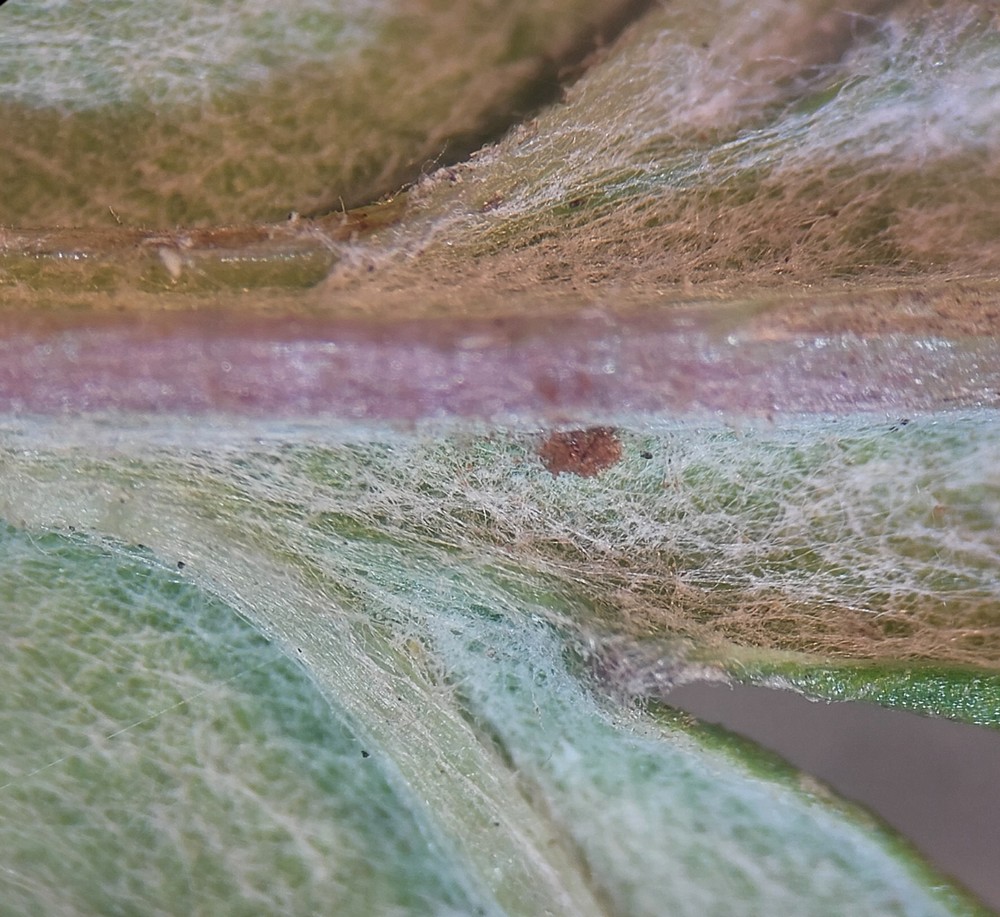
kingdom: Fungi
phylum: Basidiomycota
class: Pucciniomycetes
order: Pucciniales
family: Pucciniaceae
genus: Puccinia
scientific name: Puccinia tanaceti
